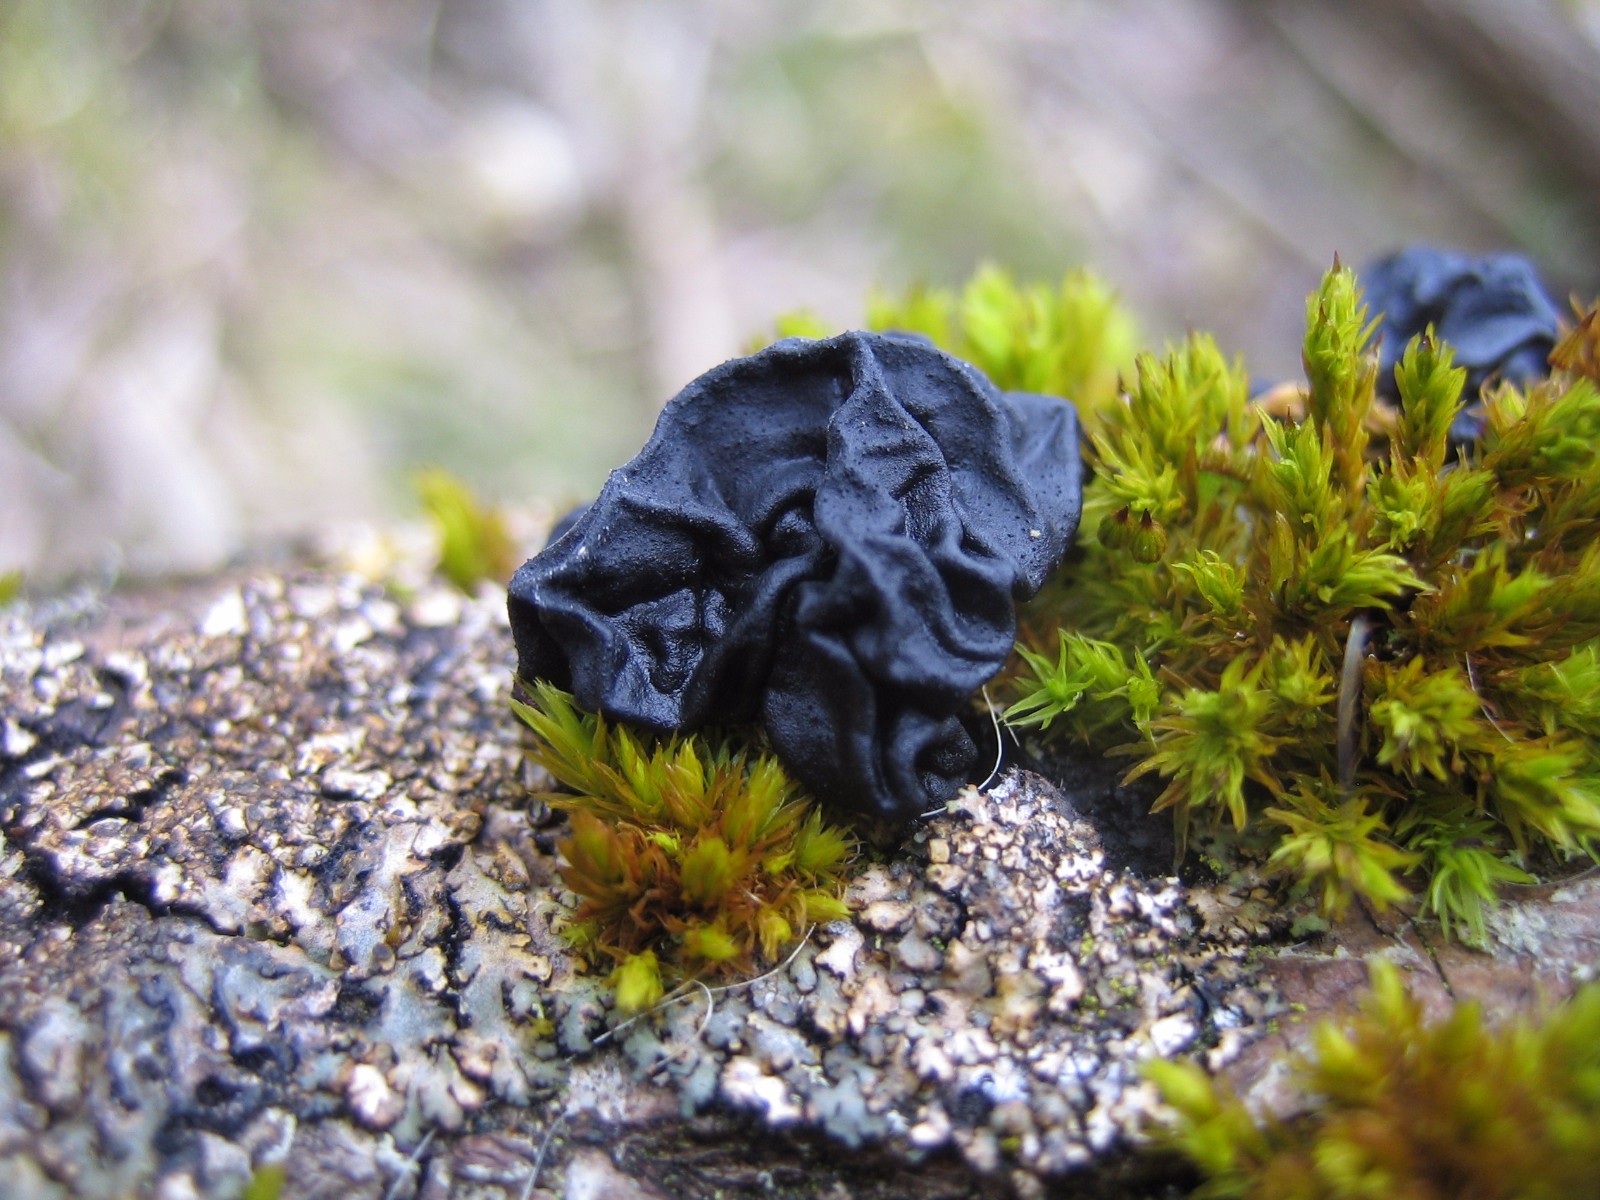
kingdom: Fungi
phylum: Basidiomycota
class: Agaricomycetes
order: Auriculariales
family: Auriculariaceae
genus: Exidia
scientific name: Exidia nigricans
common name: almindelig bævretop
